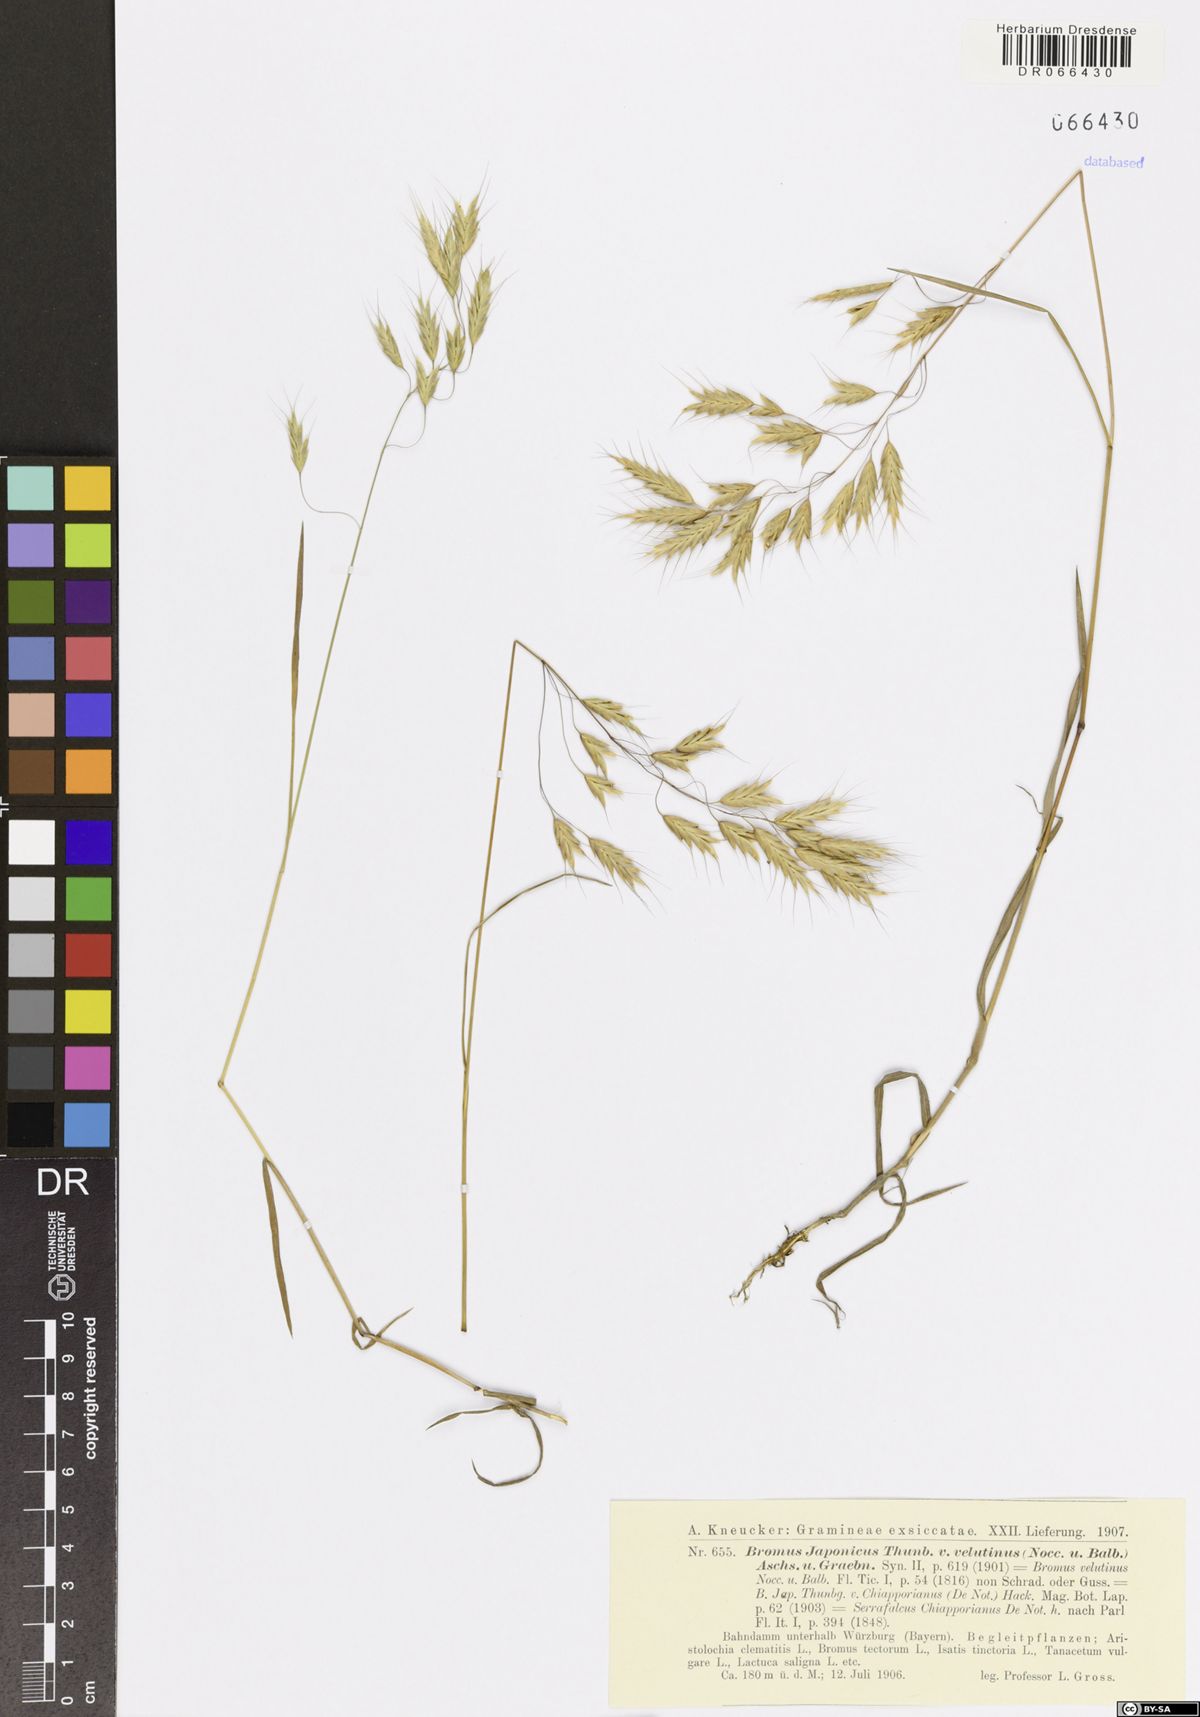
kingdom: Plantae
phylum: Tracheophyta
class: Liliopsida
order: Poales
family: Poaceae
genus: Bromus
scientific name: Bromus japonicus
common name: Japanese brome
